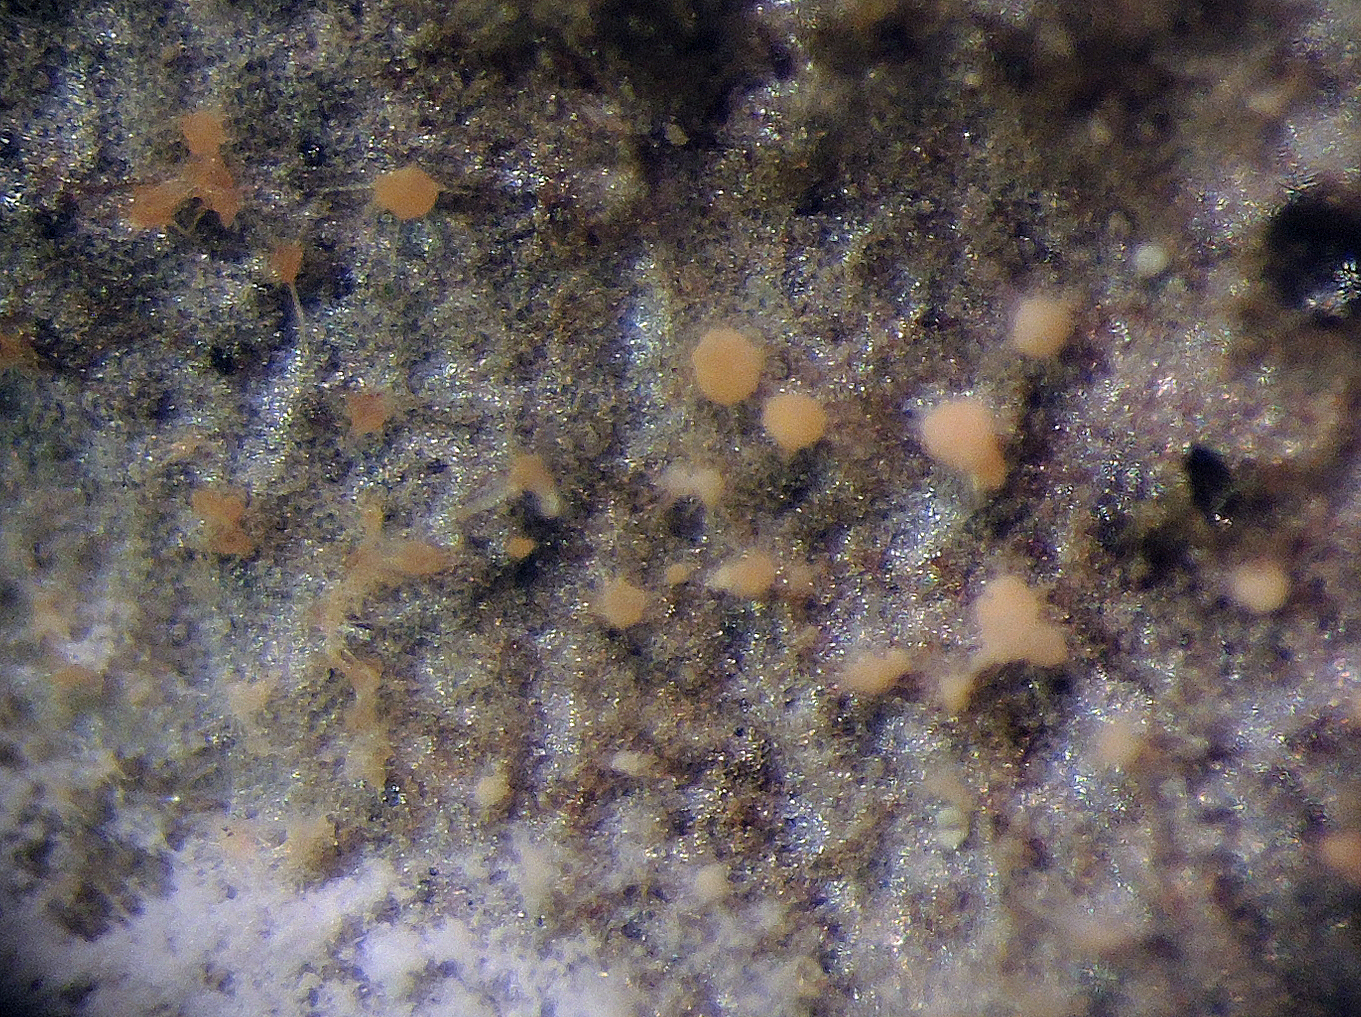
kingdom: Fungi
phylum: Ascomycota
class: Sordariomycetes
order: Hypocreales
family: Nectriaceae
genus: Pseudonectria
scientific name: Pseudonectria buxi
